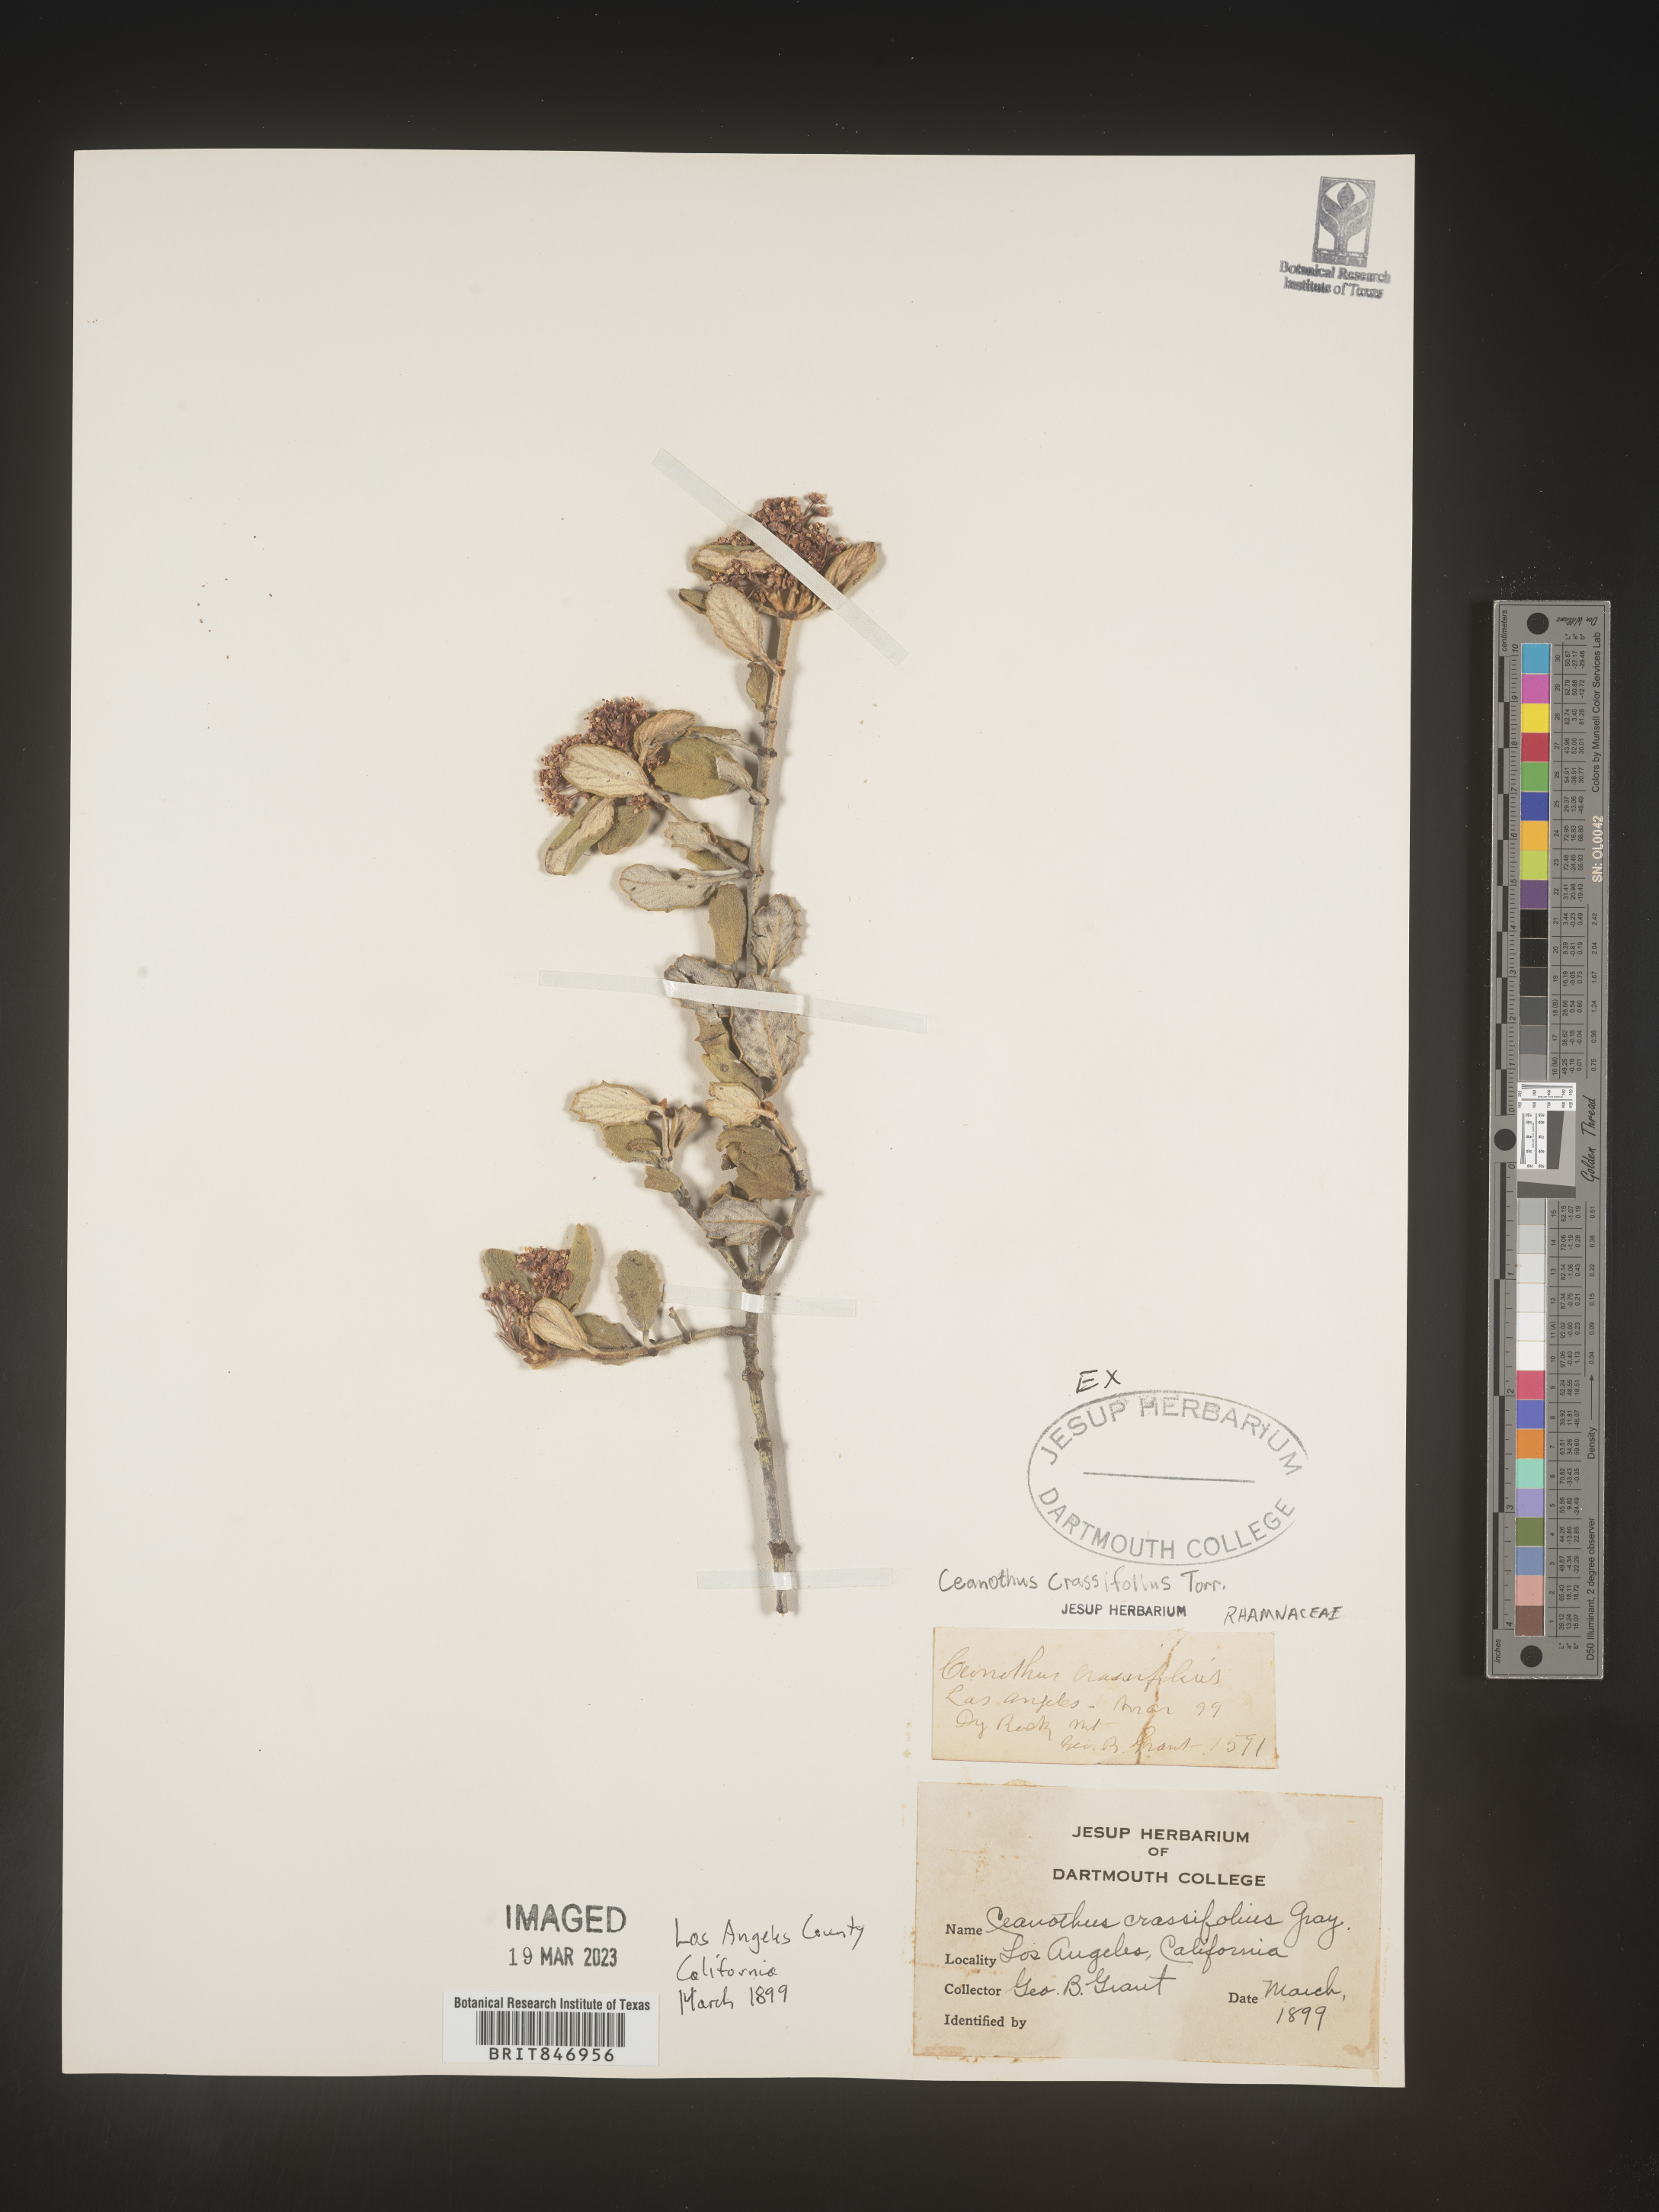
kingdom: Plantae
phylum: Tracheophyta
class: Magnoliopsida
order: Rosales
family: Rhamnaceae
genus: Ceanothus
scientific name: Ceanothus crassifolius
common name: Hoaryleaf ceanothus
